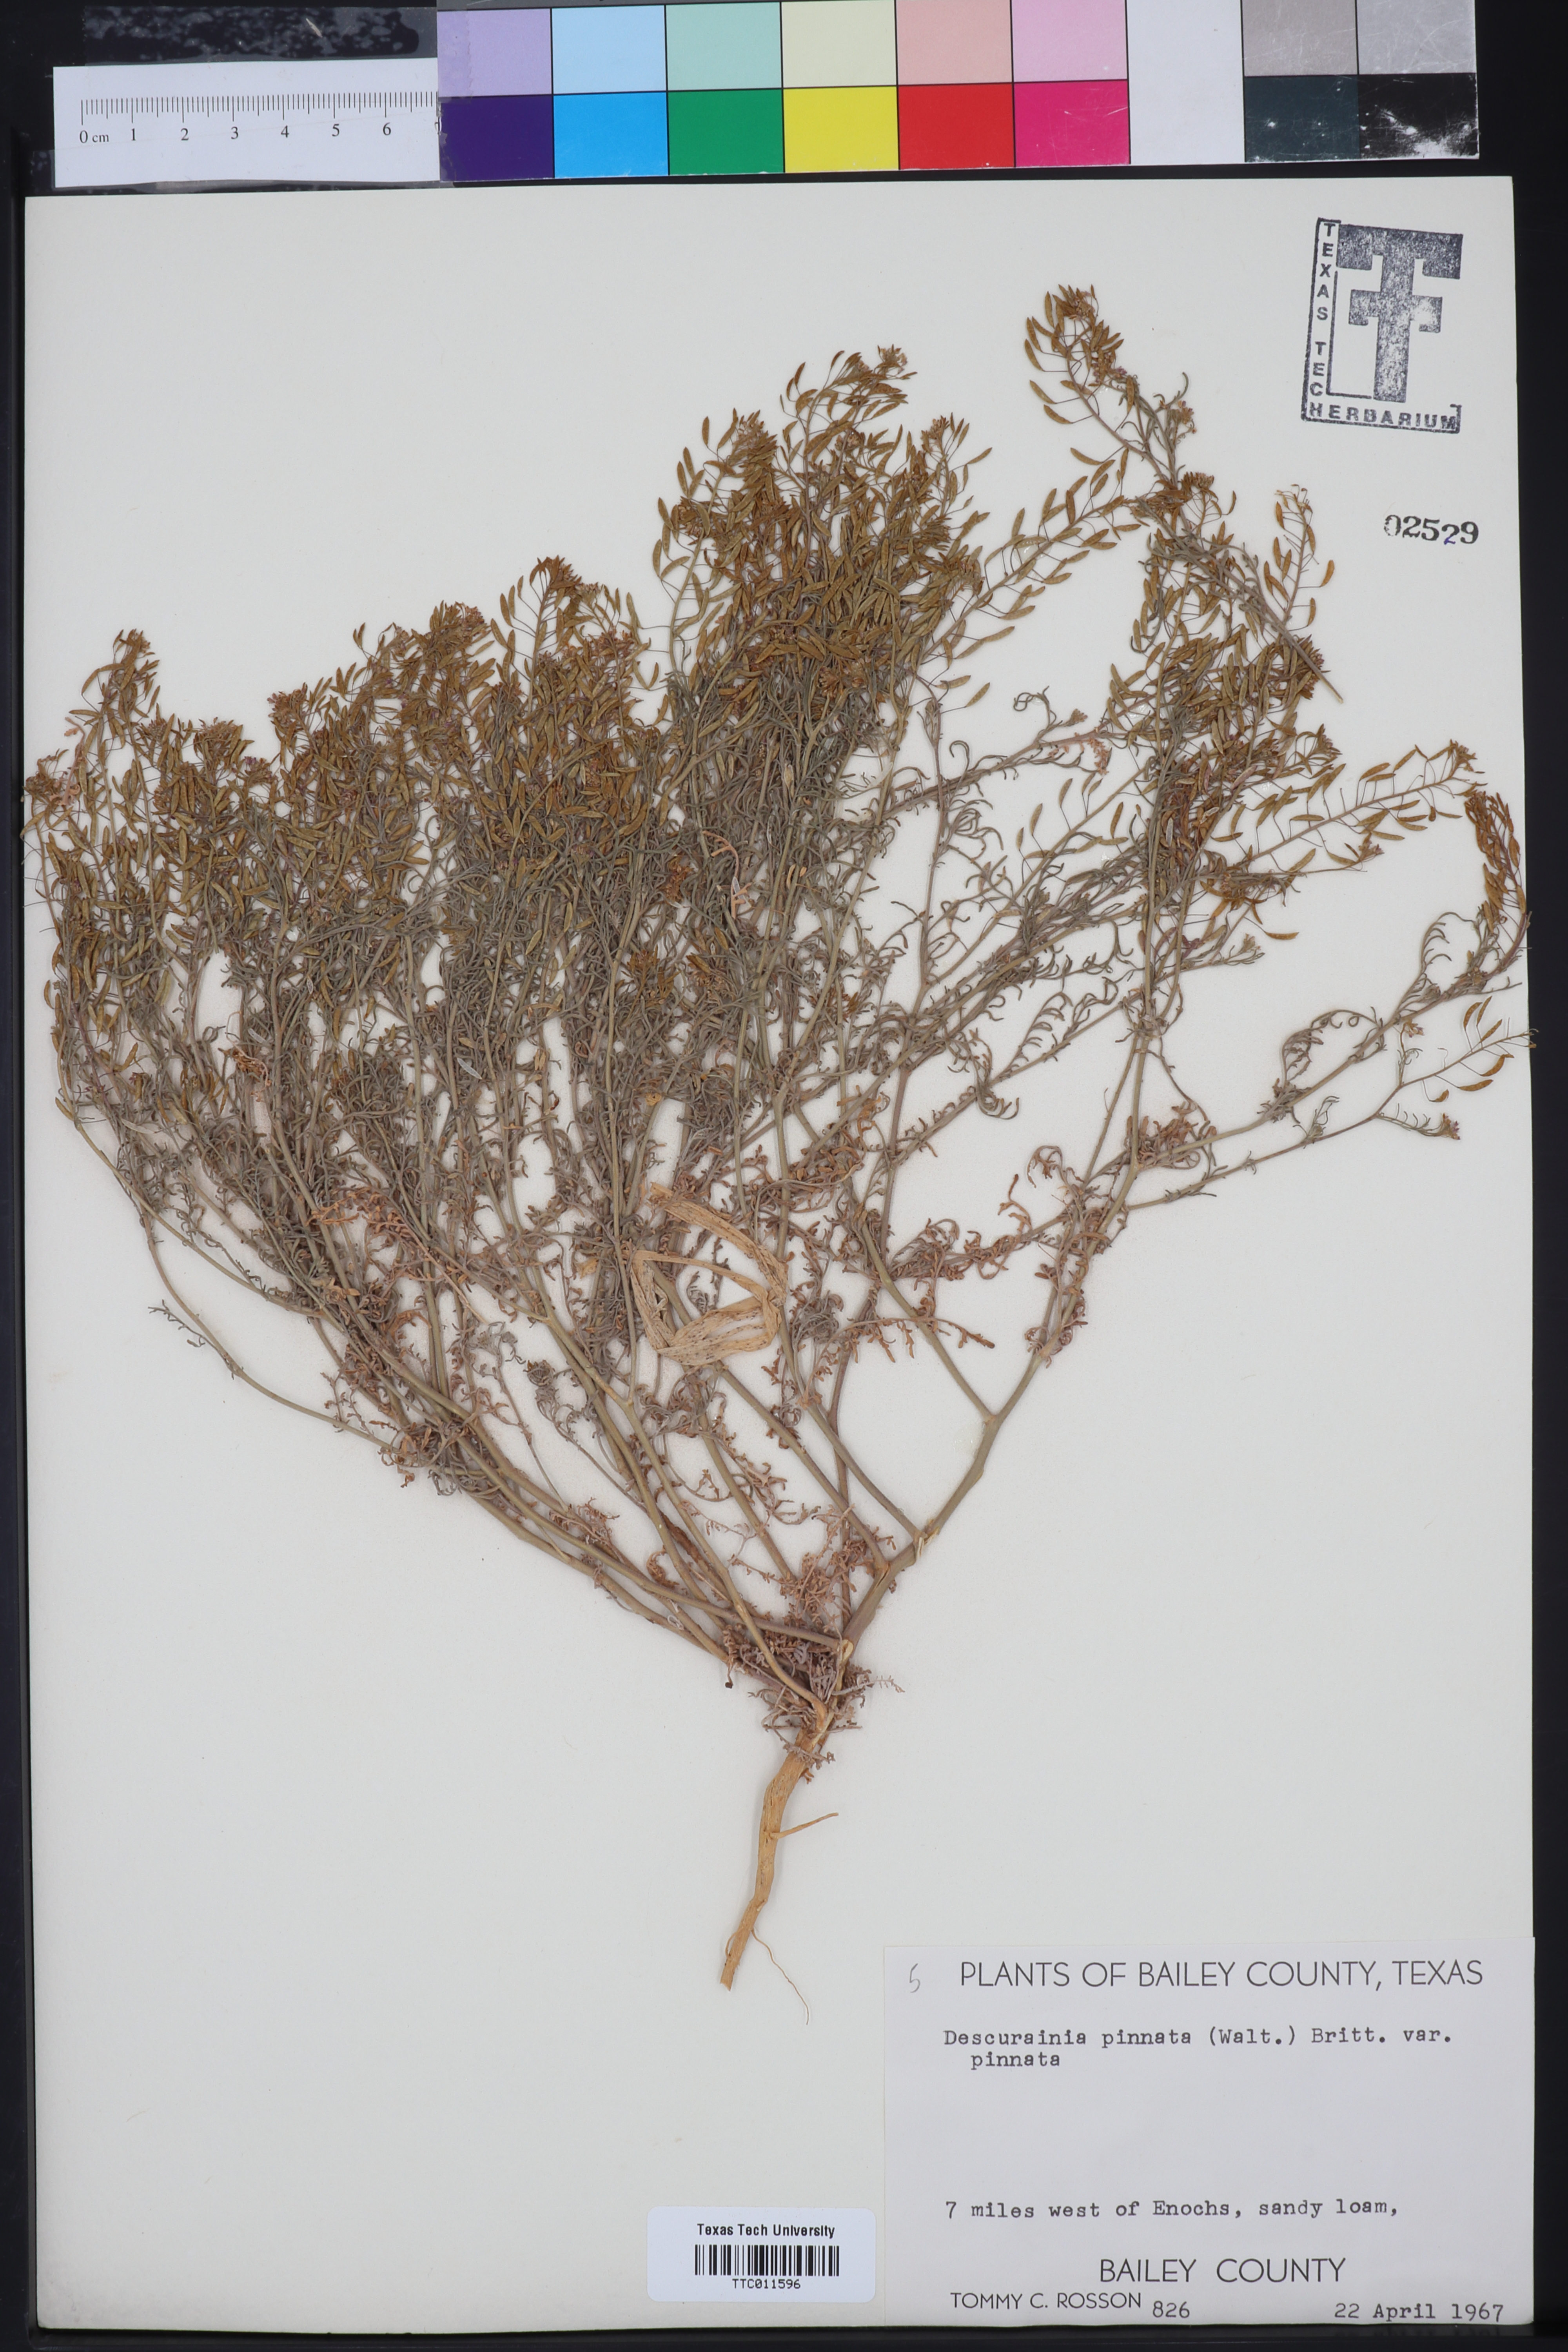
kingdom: Plantae
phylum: Tracheophyta
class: Magnoliopsida
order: Brassicales
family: Brassicaceae
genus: Descurainia
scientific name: Descurainia pinnata
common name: Western tansy mustard
